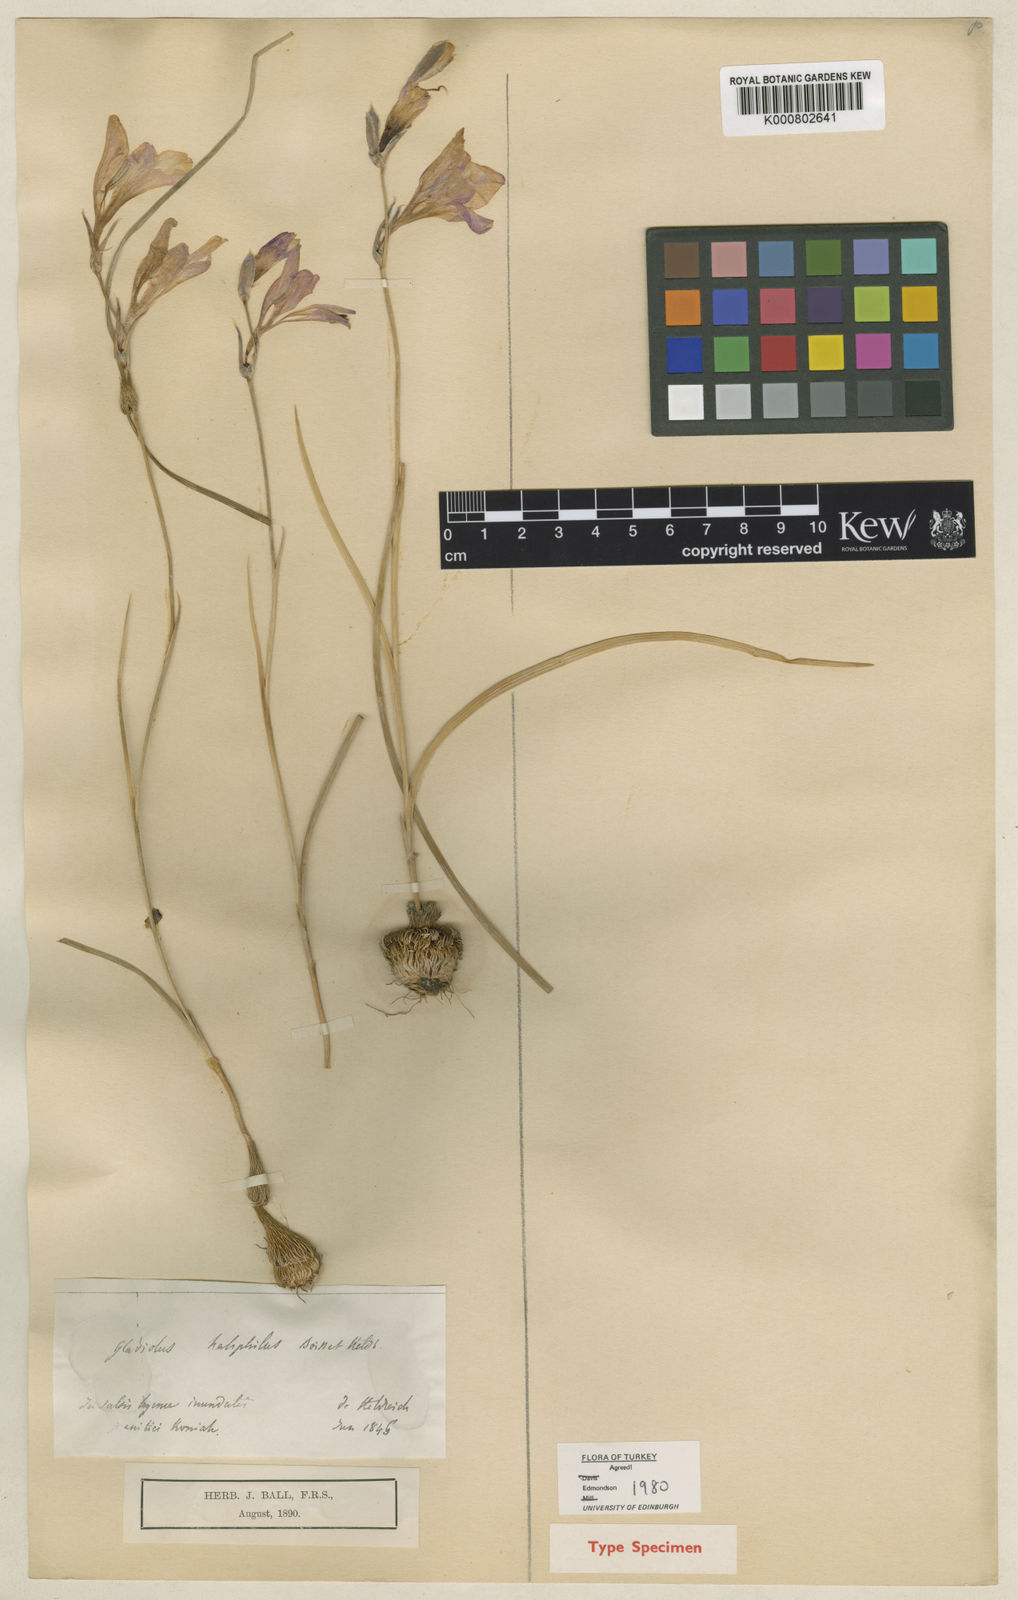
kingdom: Plantae
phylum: Tracheophyta
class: Liliopsida
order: Asparagales
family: Iridaceae
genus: Gladiolus
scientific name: Gladiolus halophilus
